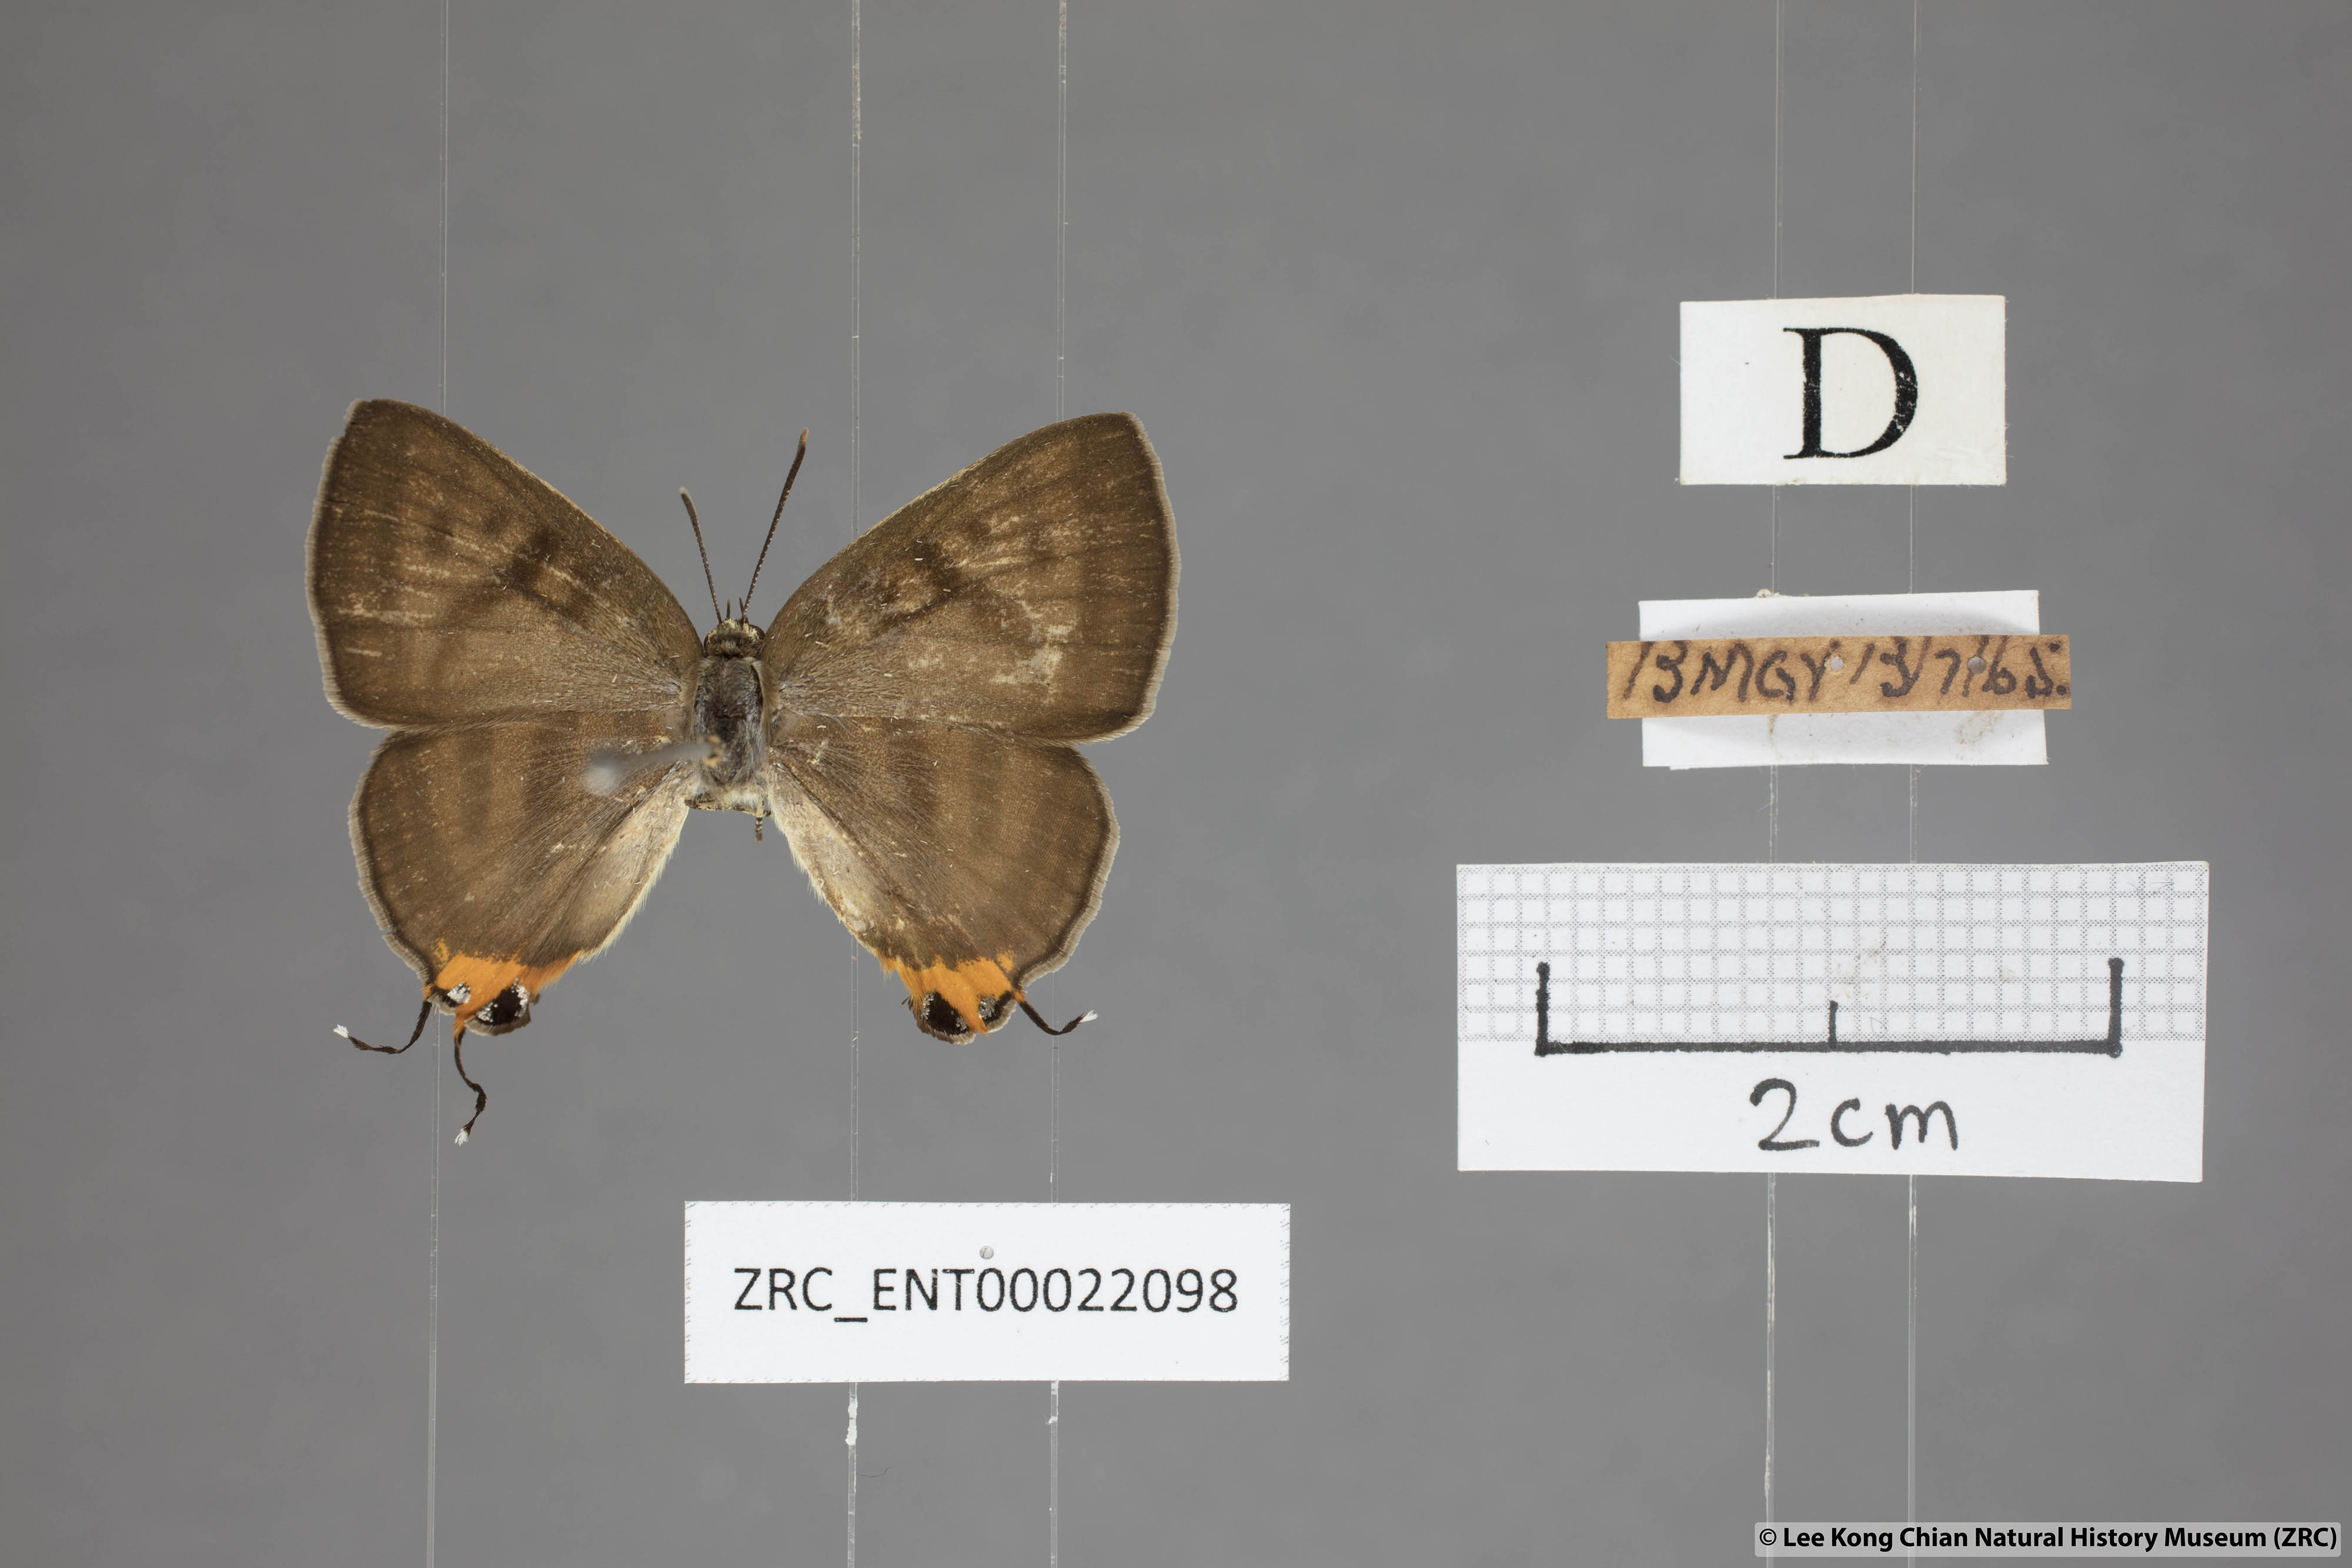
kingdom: Animalia
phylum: Arthropoda
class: Insecta
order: Lepidoptera
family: Lycaenidae
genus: Spindasis
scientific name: Spindasis syama
